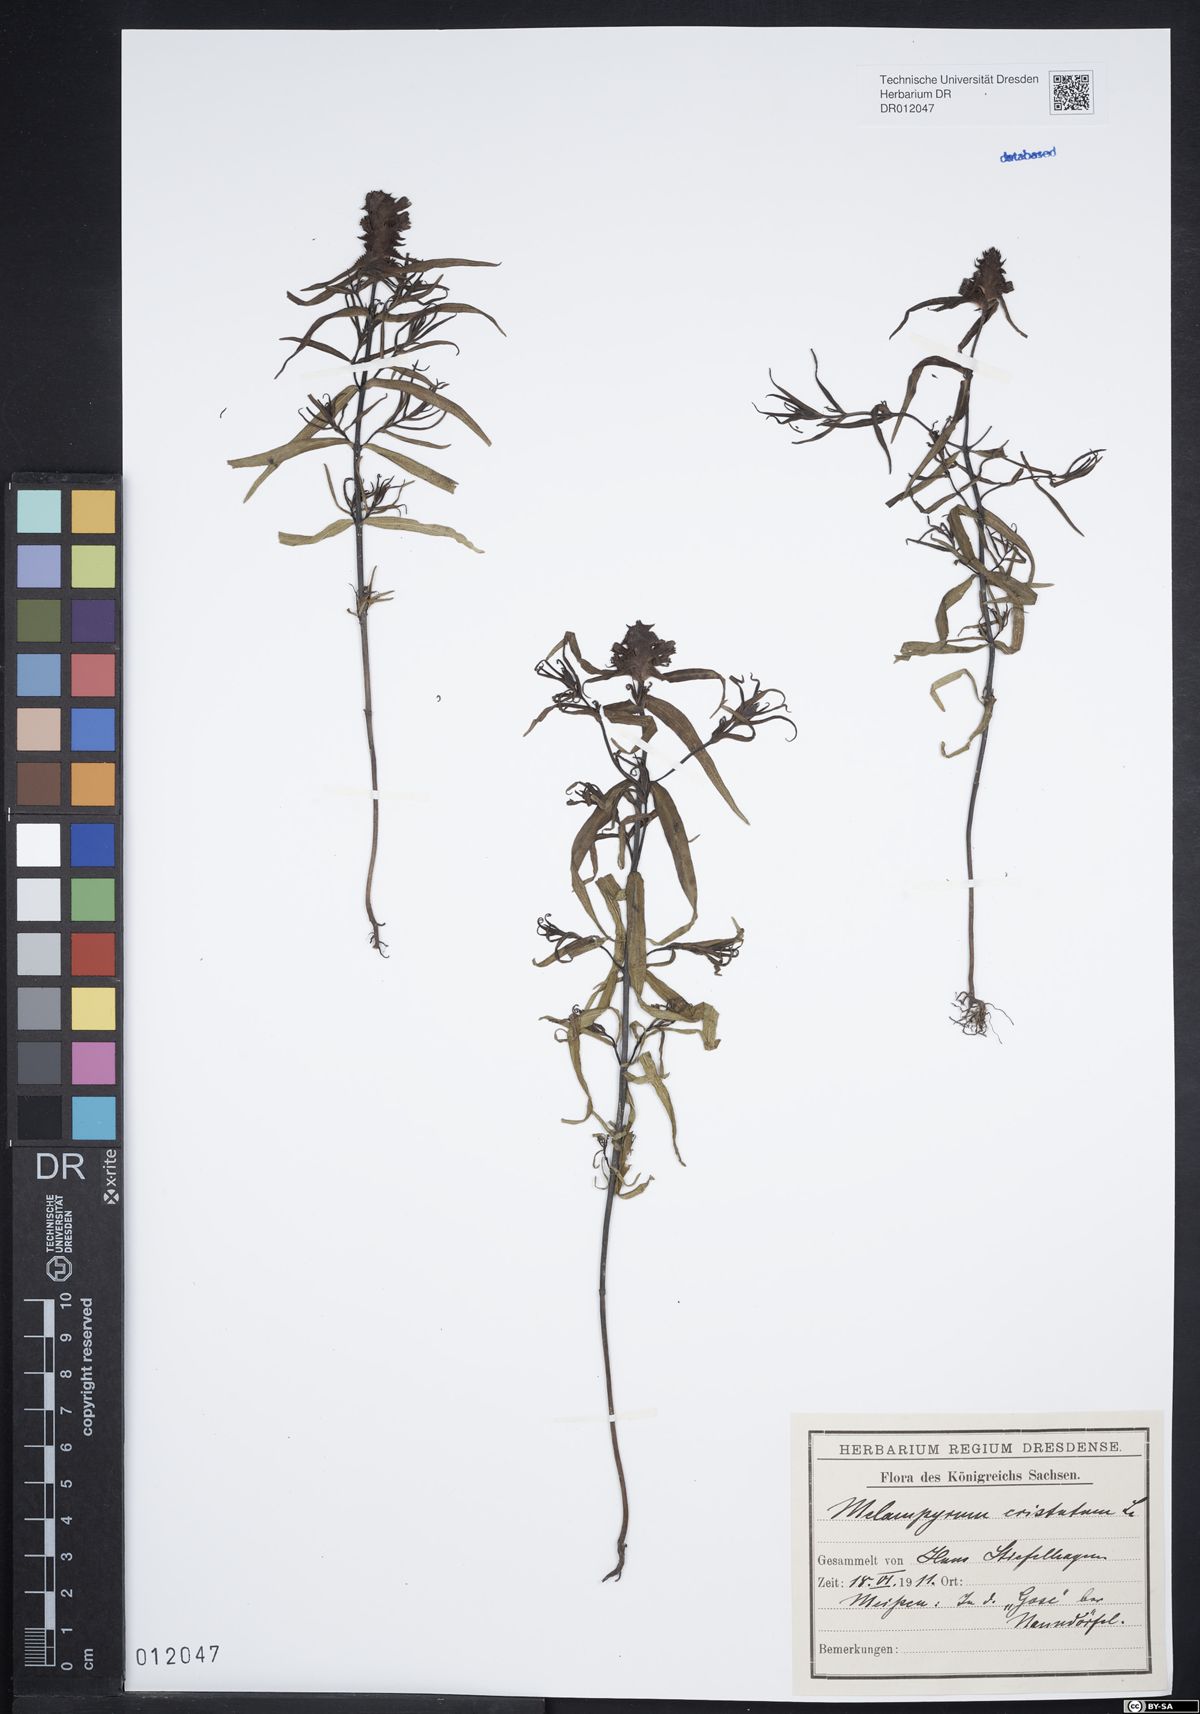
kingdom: Plantae
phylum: Tracheophyta
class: Magnoliopsida
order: Lamiales
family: Orobanchaceae
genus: Melampyrum
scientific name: Melampyrum cristatum
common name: Crested cow-wheat
